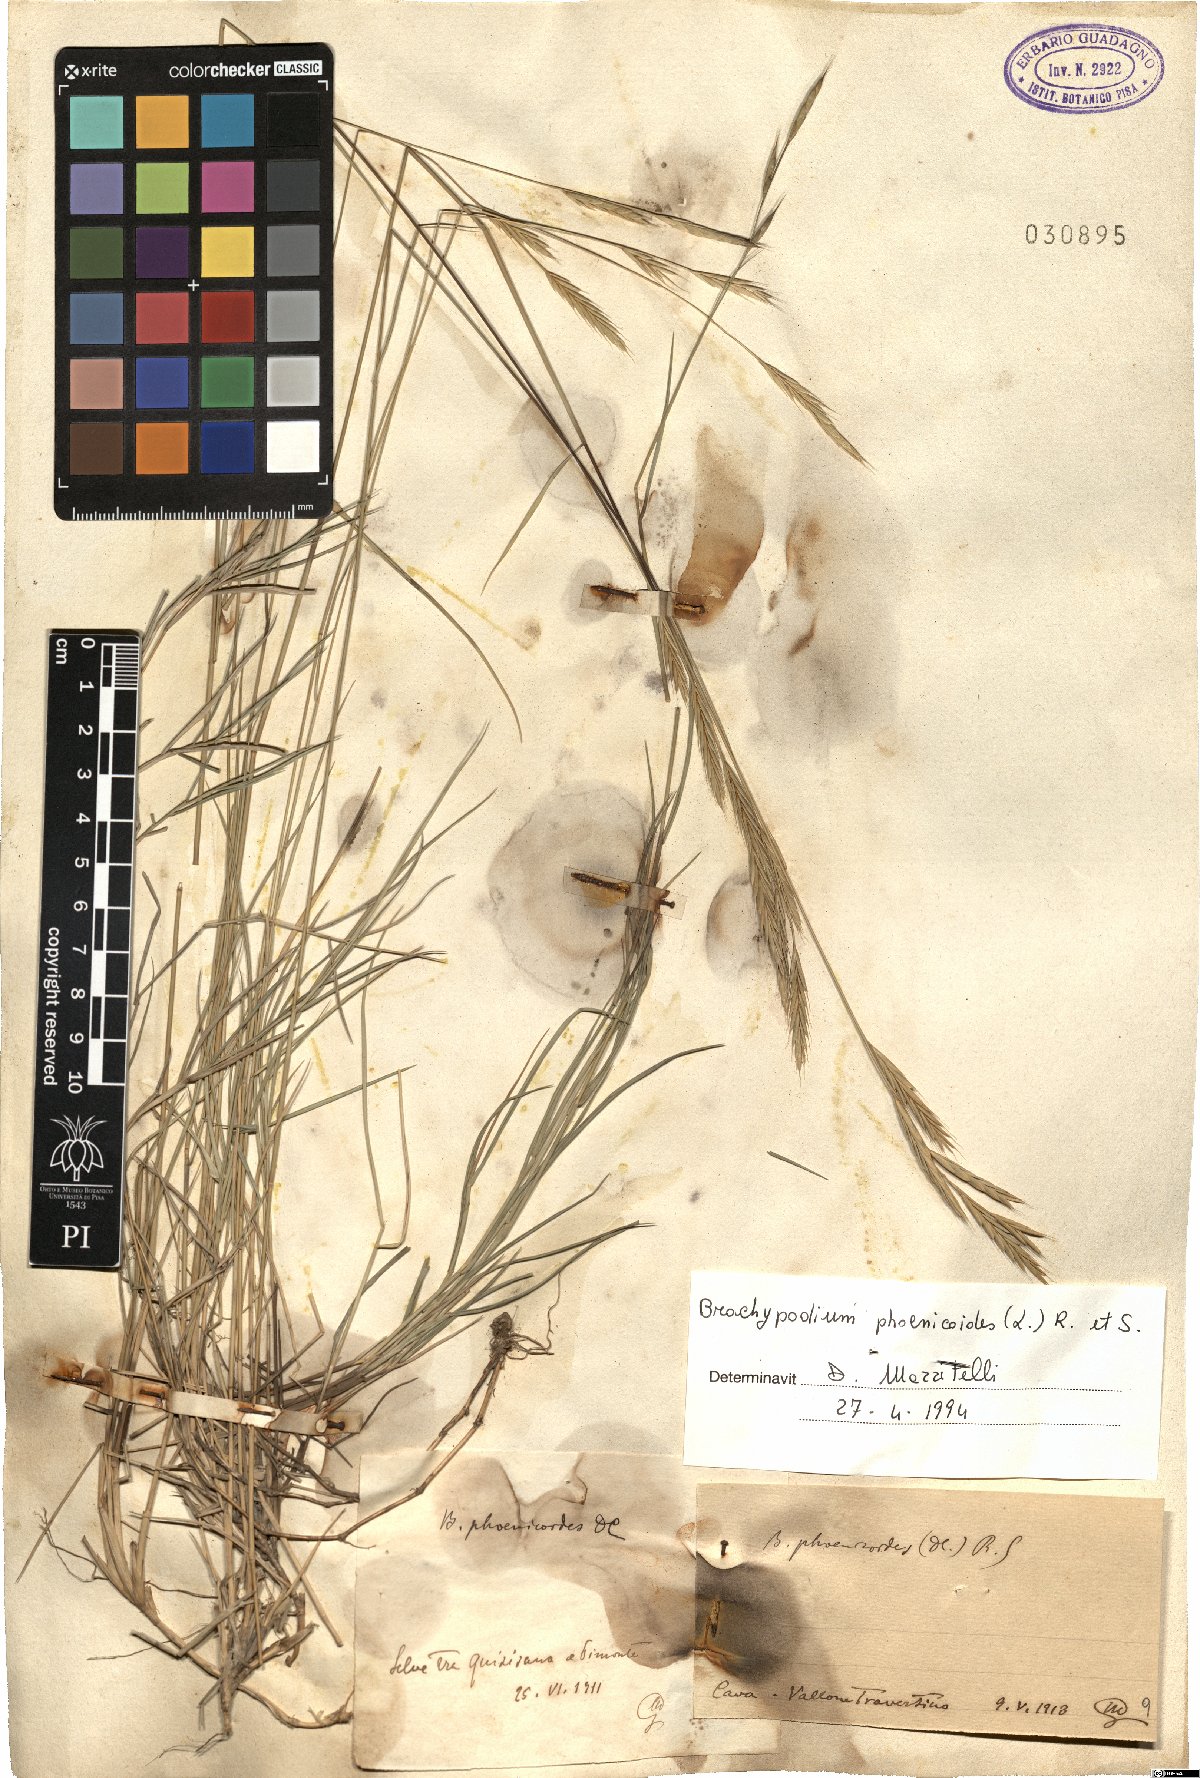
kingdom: Plantae
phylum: Tracheophyta
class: Liliopsida
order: Poales
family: Poaceae
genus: Brachypodium
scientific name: Brachypodium phoenicoides
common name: Thinleaf false brome
